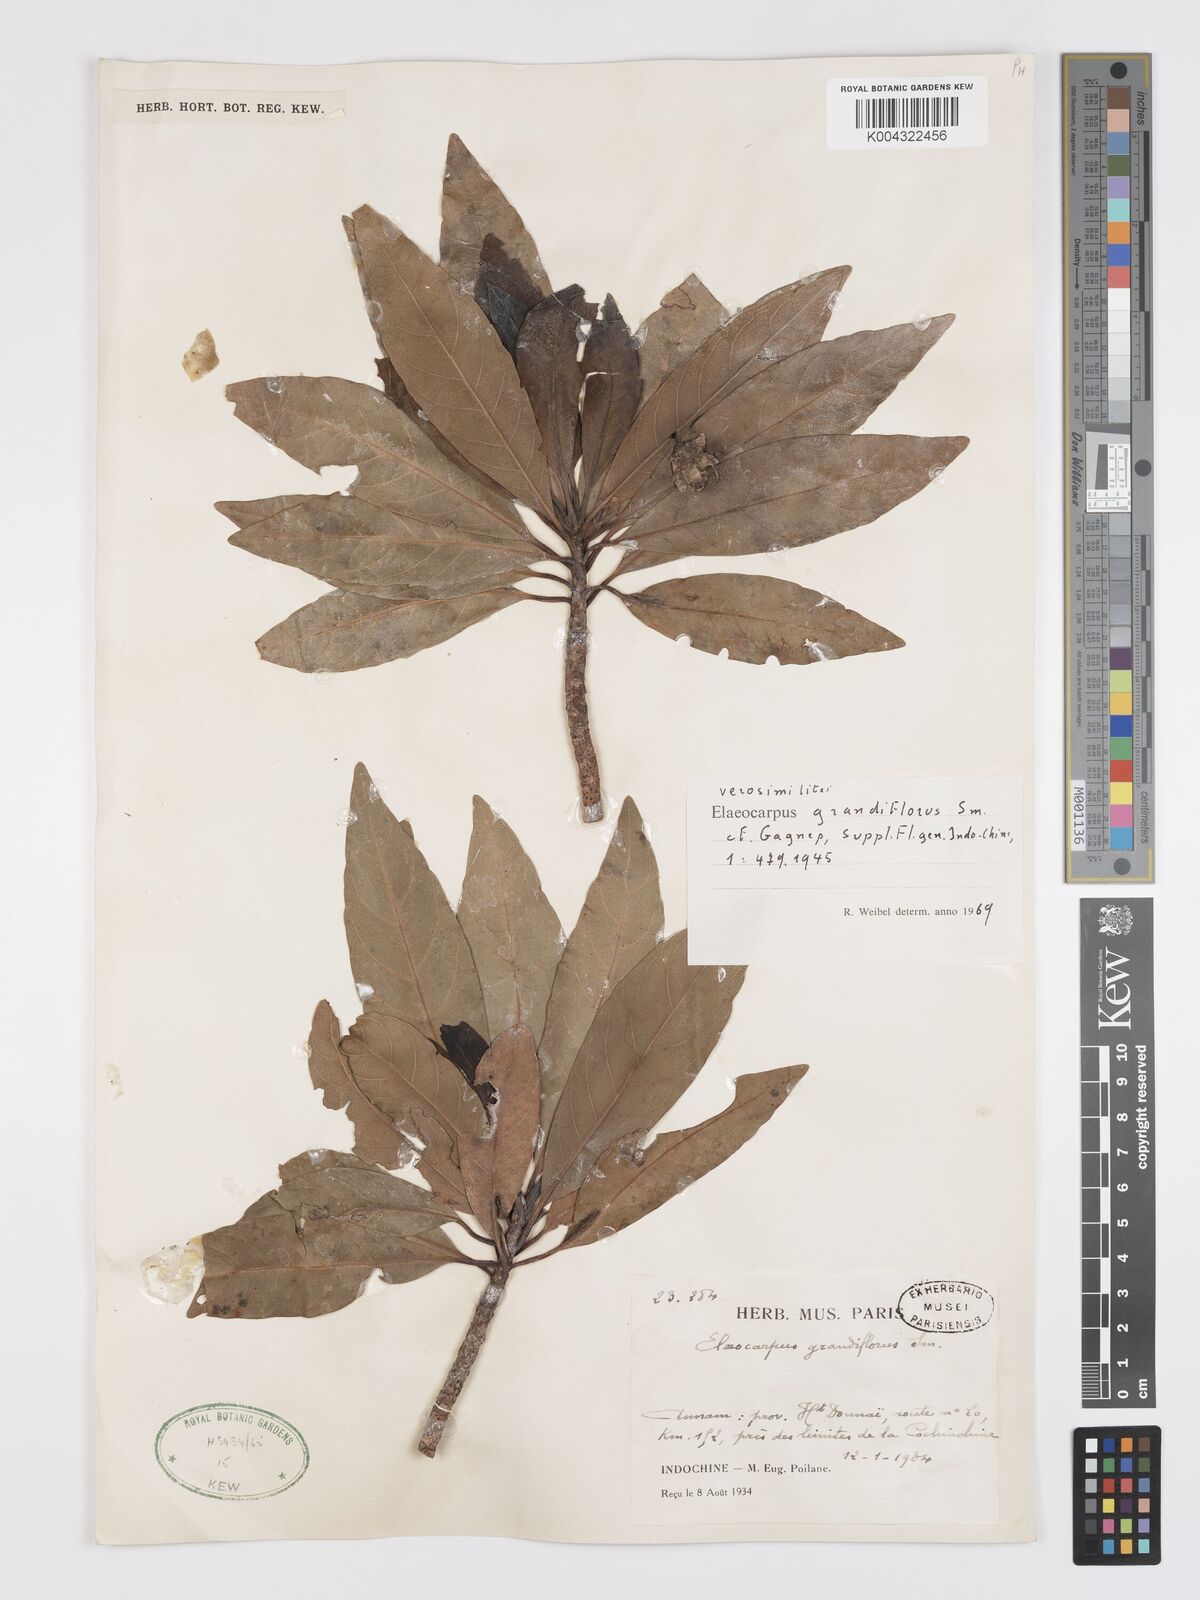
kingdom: Plantae
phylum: Tracheophyta
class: Magnoliopsida
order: Oxalidales
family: Elaeocarpaceae
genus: Elaeocarpus
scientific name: Elaeocarpus grandiflorus
